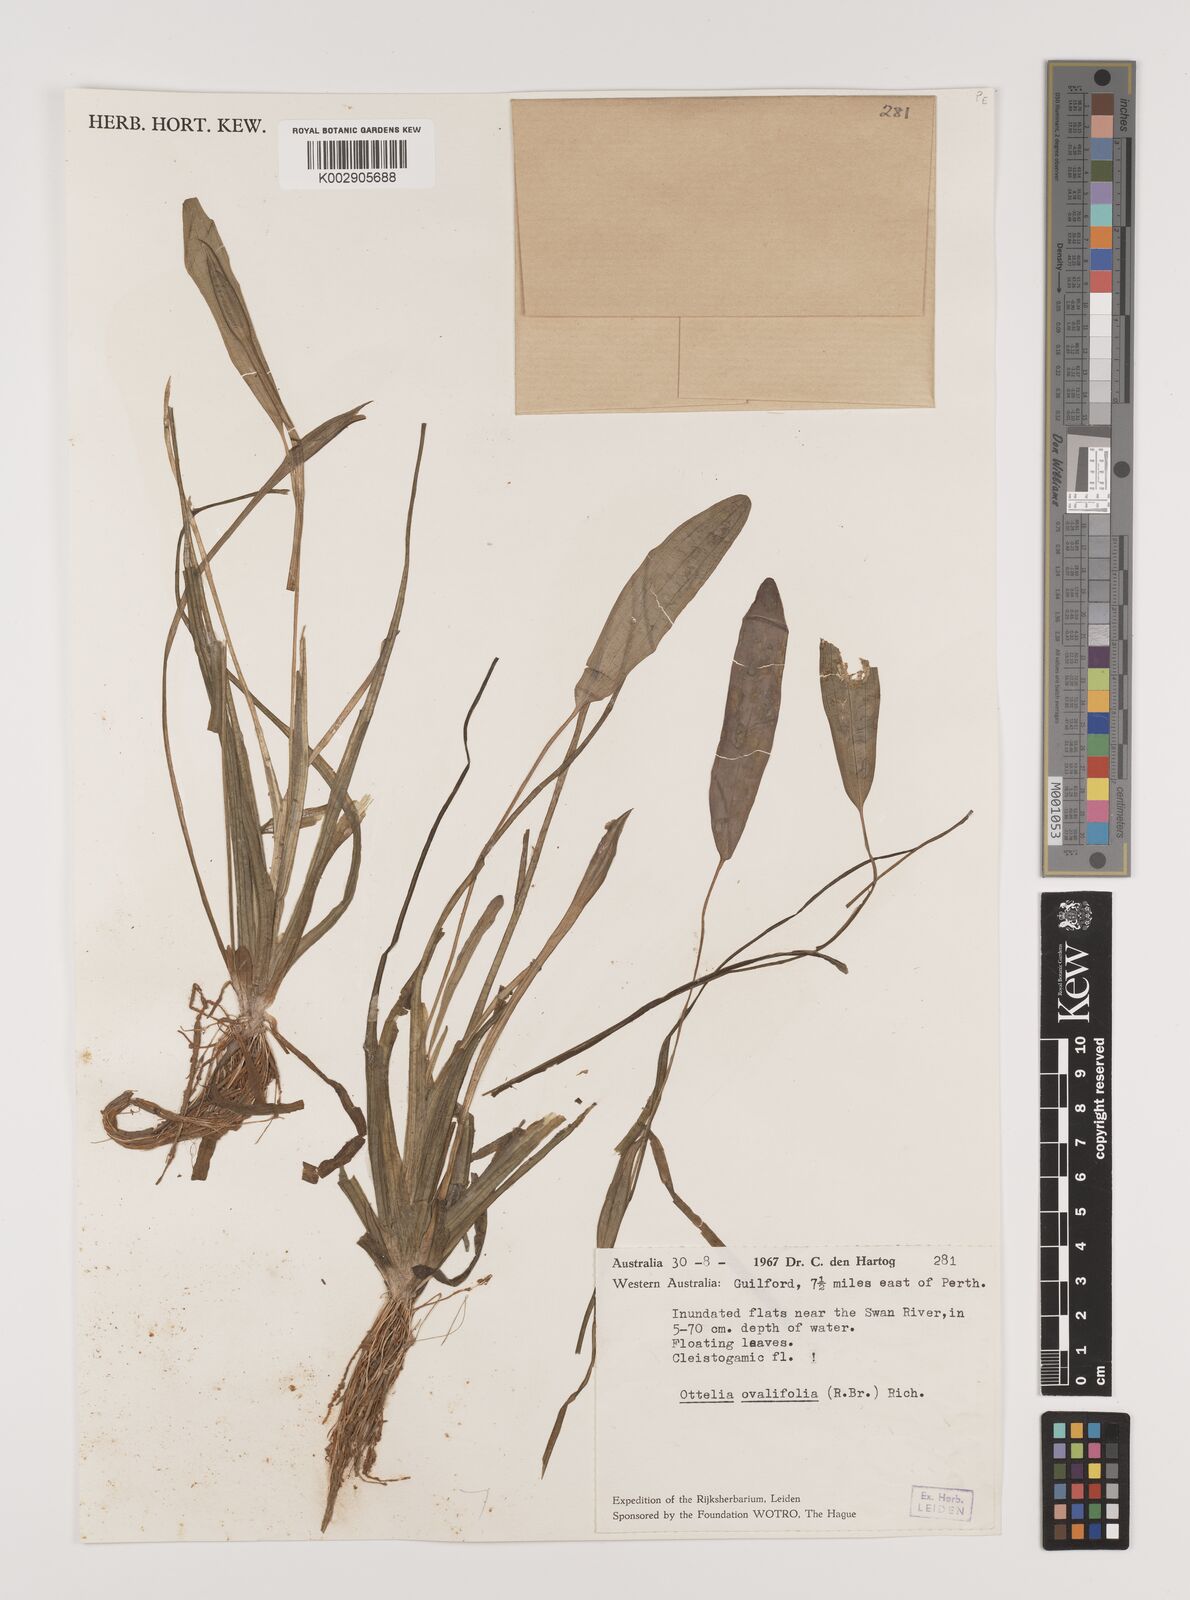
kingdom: Plantae
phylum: Tracheophyta
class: Liliopsida
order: Alismatales
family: Hydrocharitaceae
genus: Ottelia
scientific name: Ottelia ovalifolia
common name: Swamp-lily
